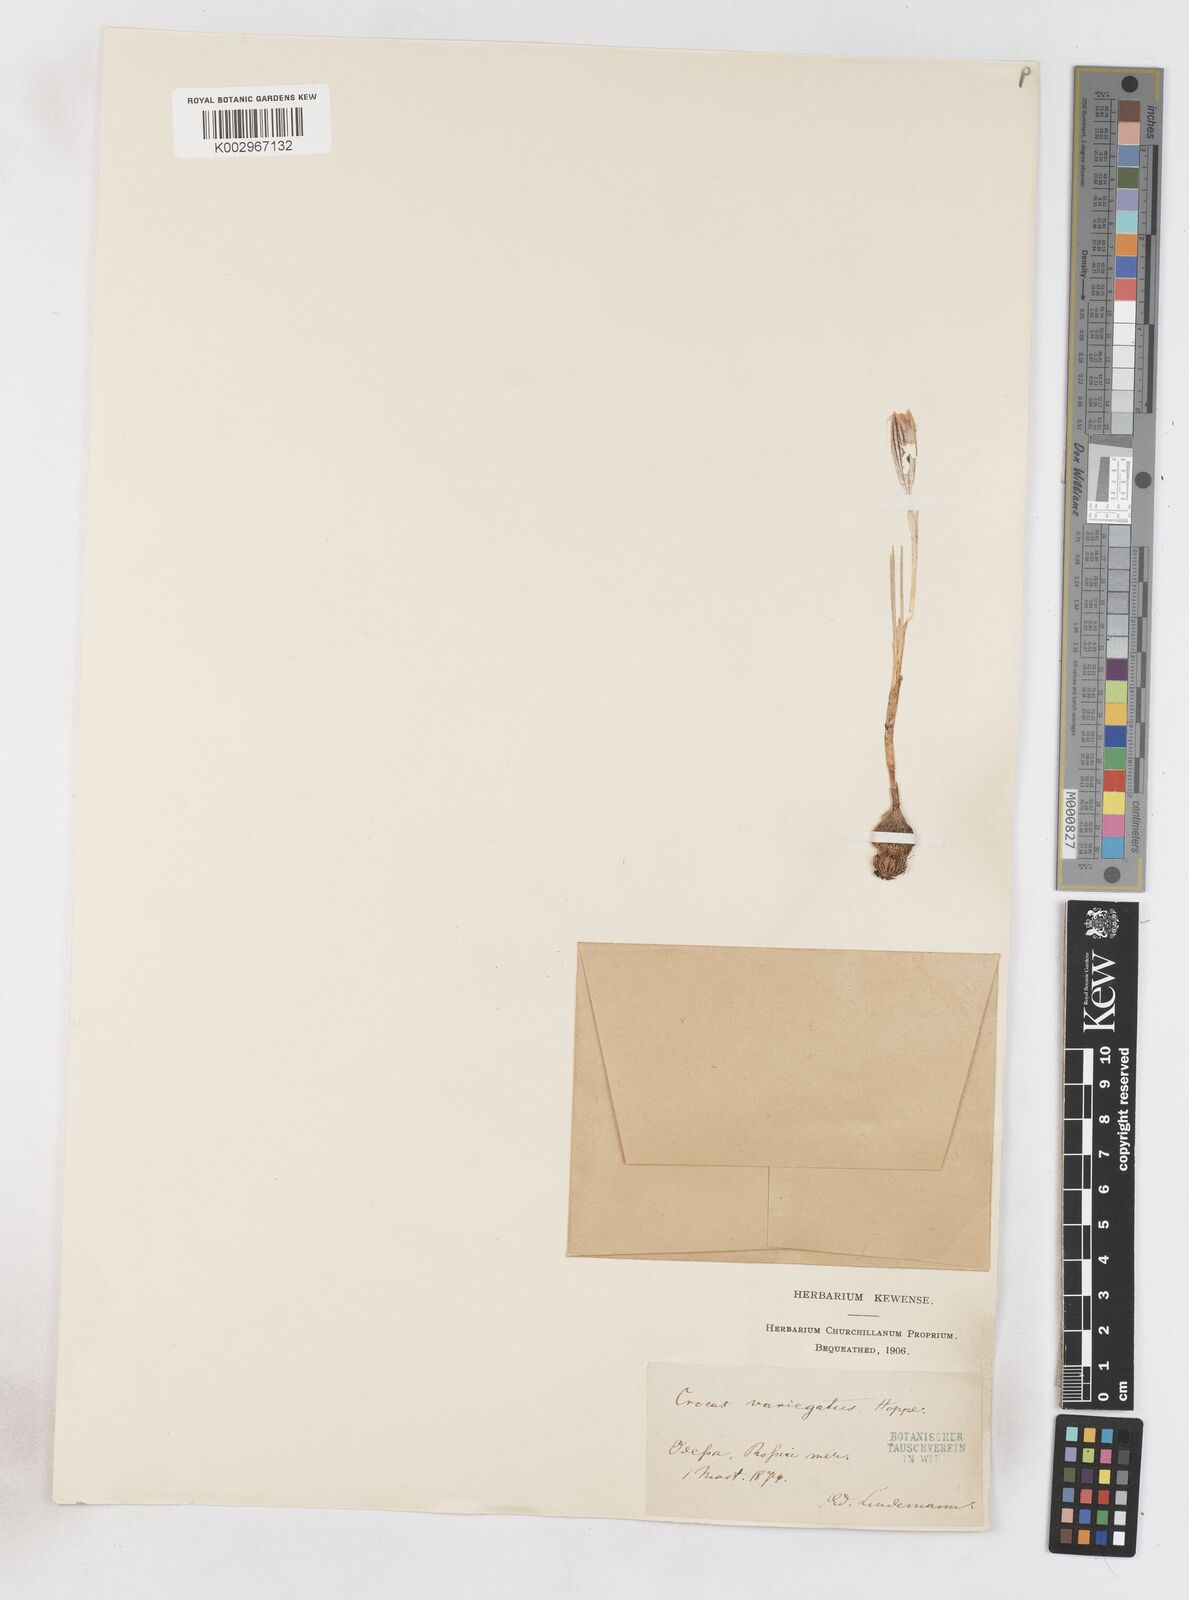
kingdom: Plantae
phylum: Tracheophyta
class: Liliopsida
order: Asparagales
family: Iridaceae
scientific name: Iridaceae
